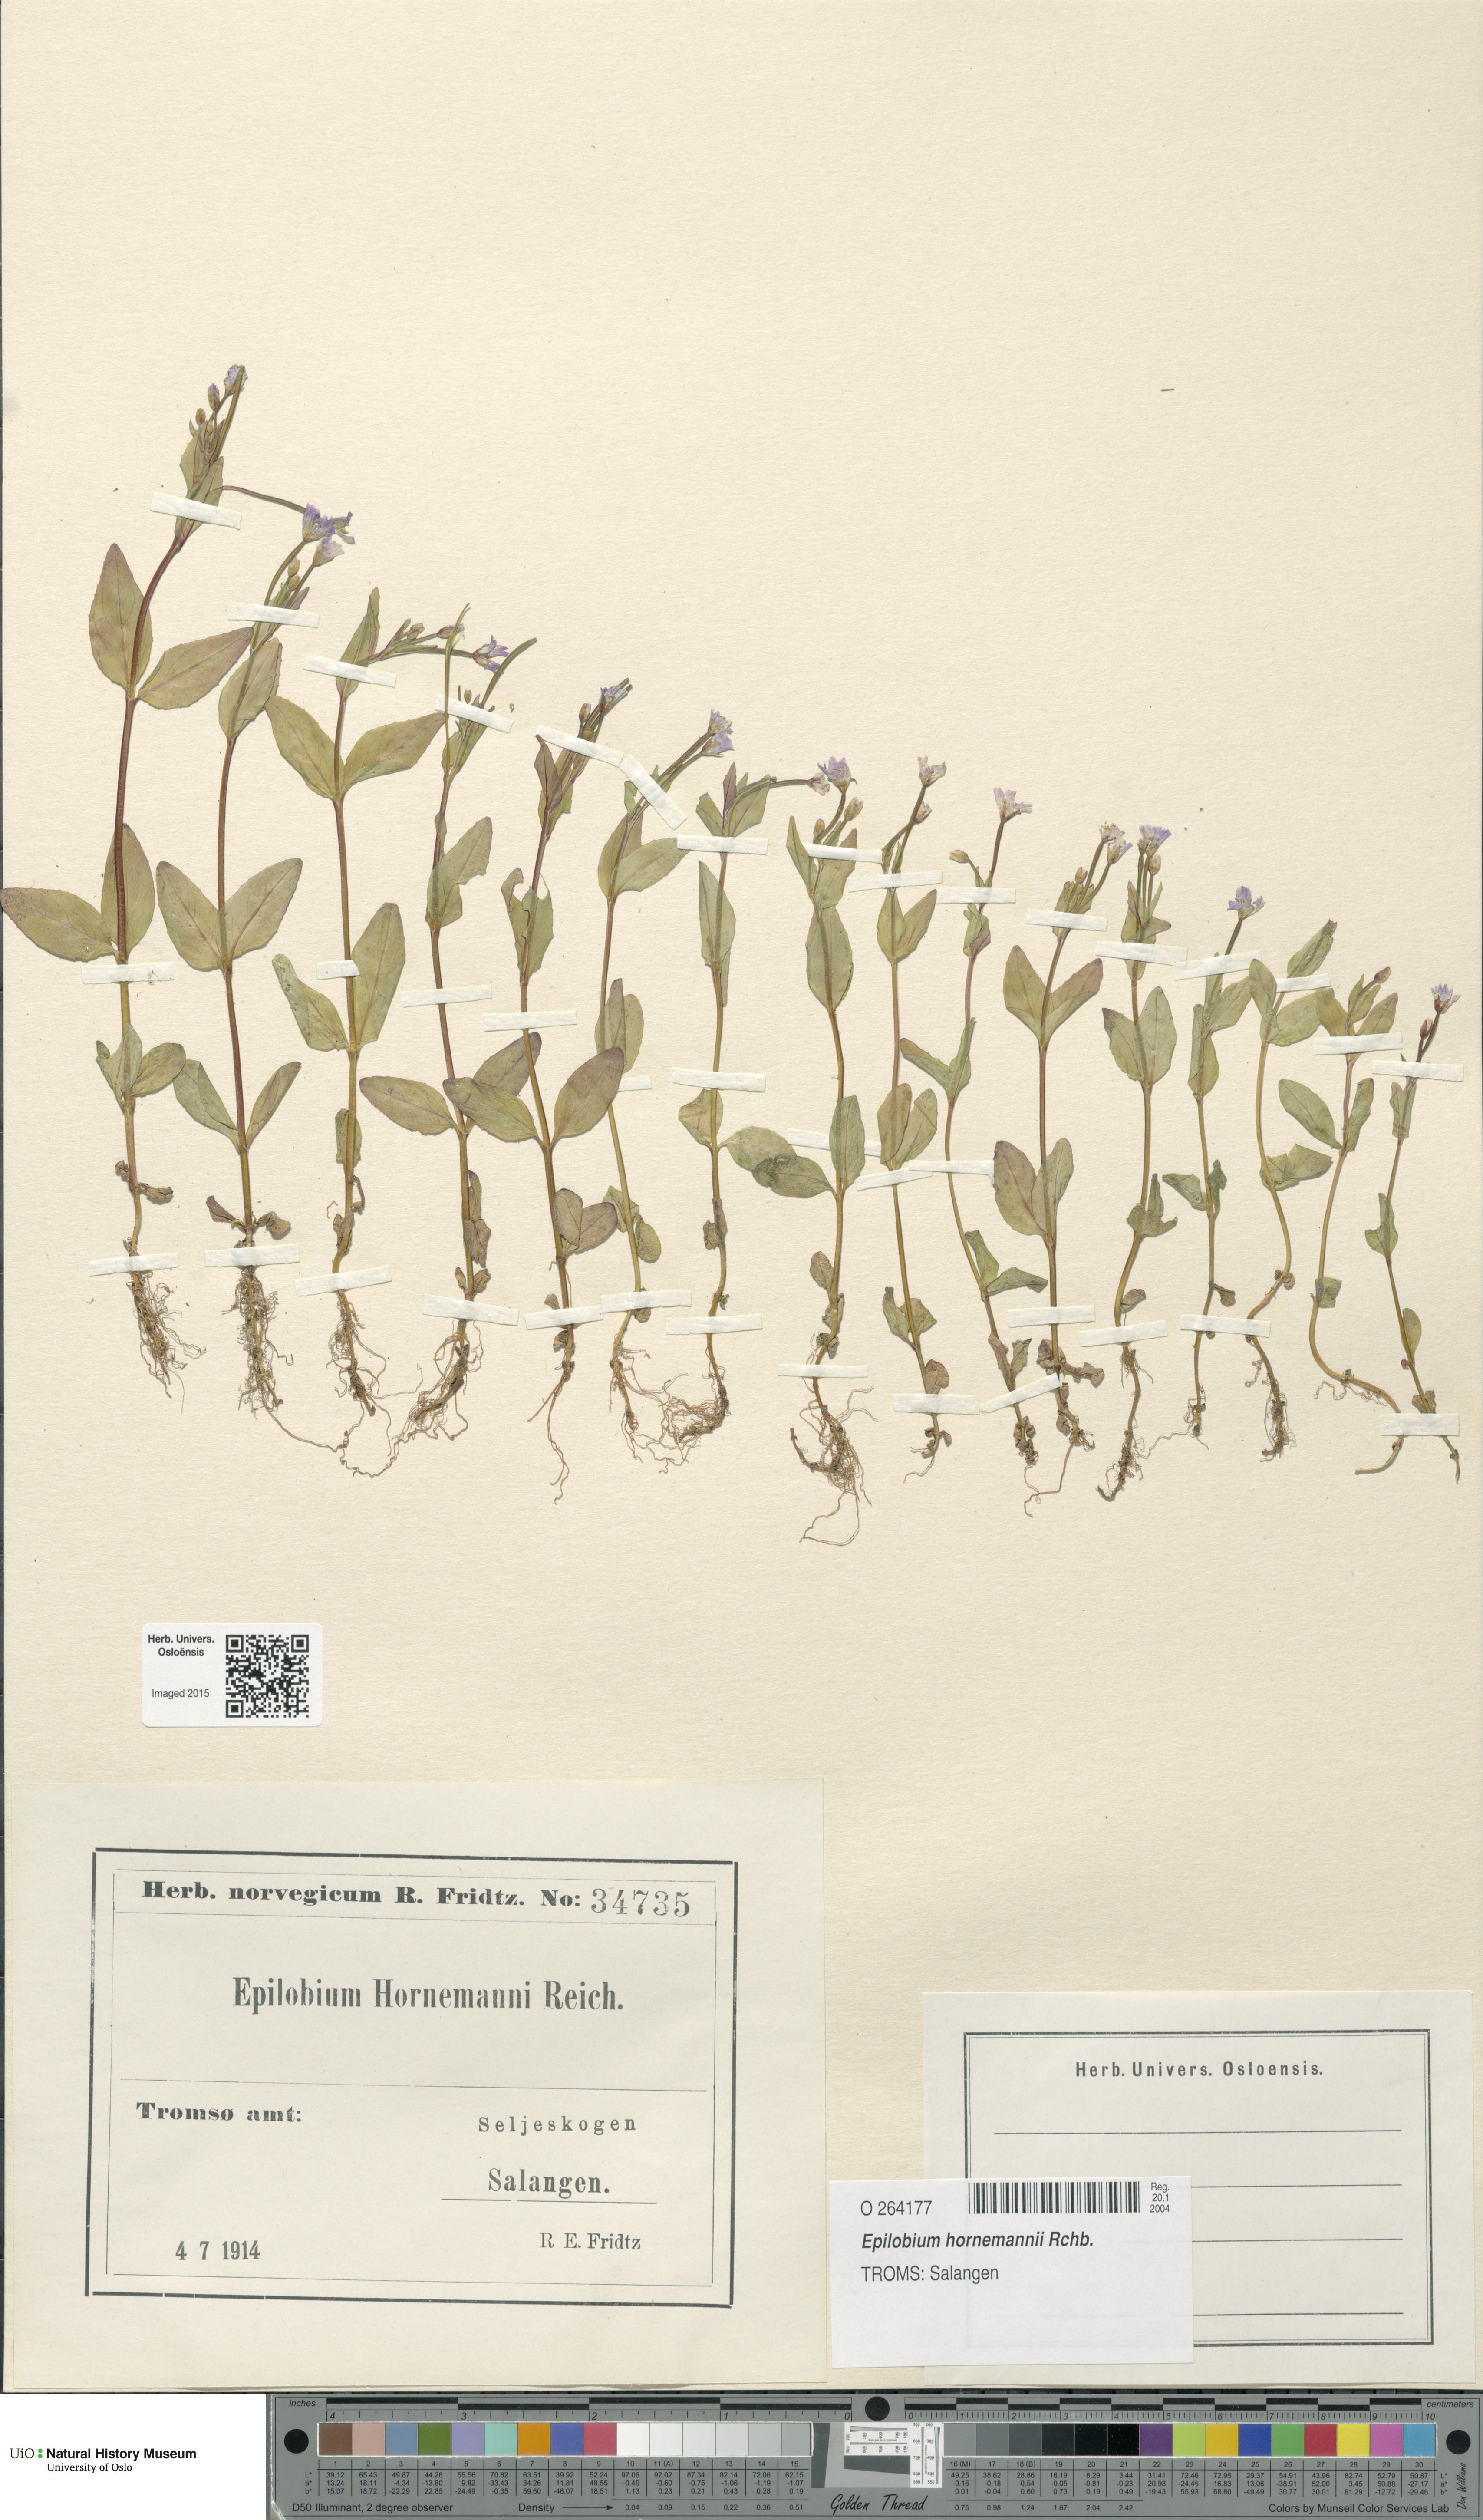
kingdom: Plantae
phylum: Tracheophyta
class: Magnoliopsida
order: Myrtales
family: Onagraceae
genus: Epilobium
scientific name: Epilobium hornemannii
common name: Hornemann's willowherb
